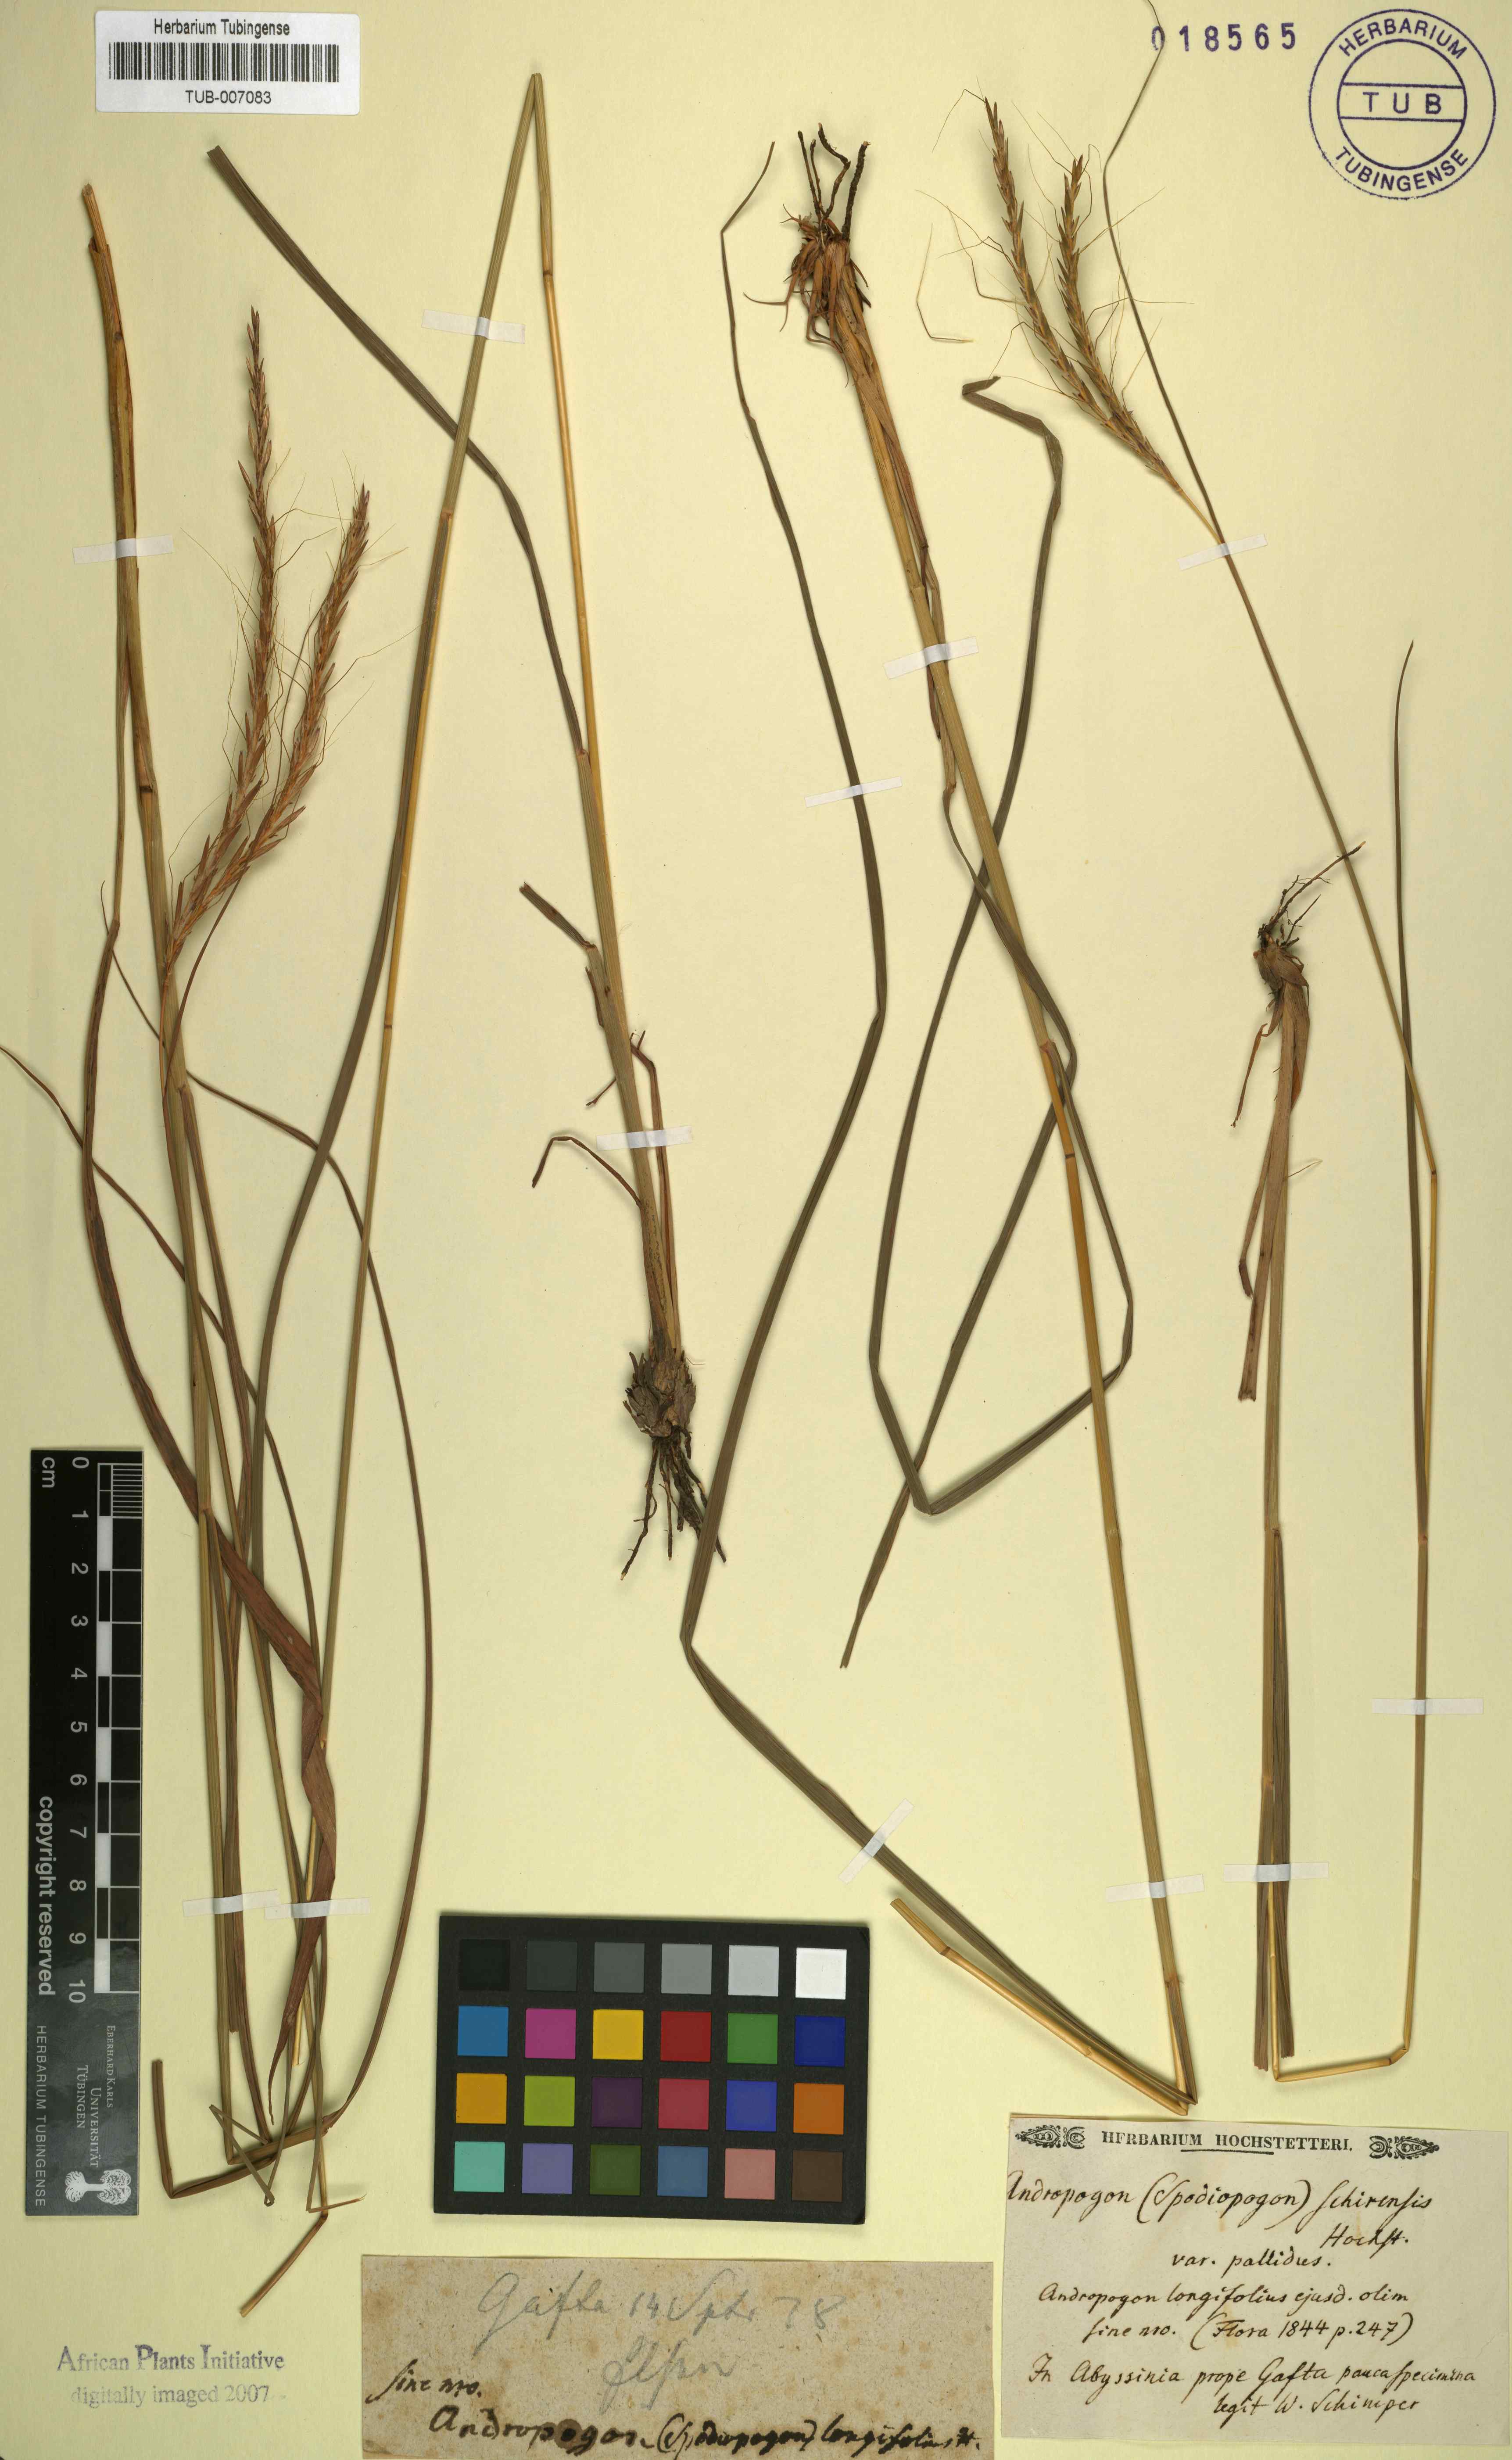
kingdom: Plantae
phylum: Tracheophyta
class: Liliopsida
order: Poales
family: Poaceae
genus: Andropogon
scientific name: Andropogon schirensis
